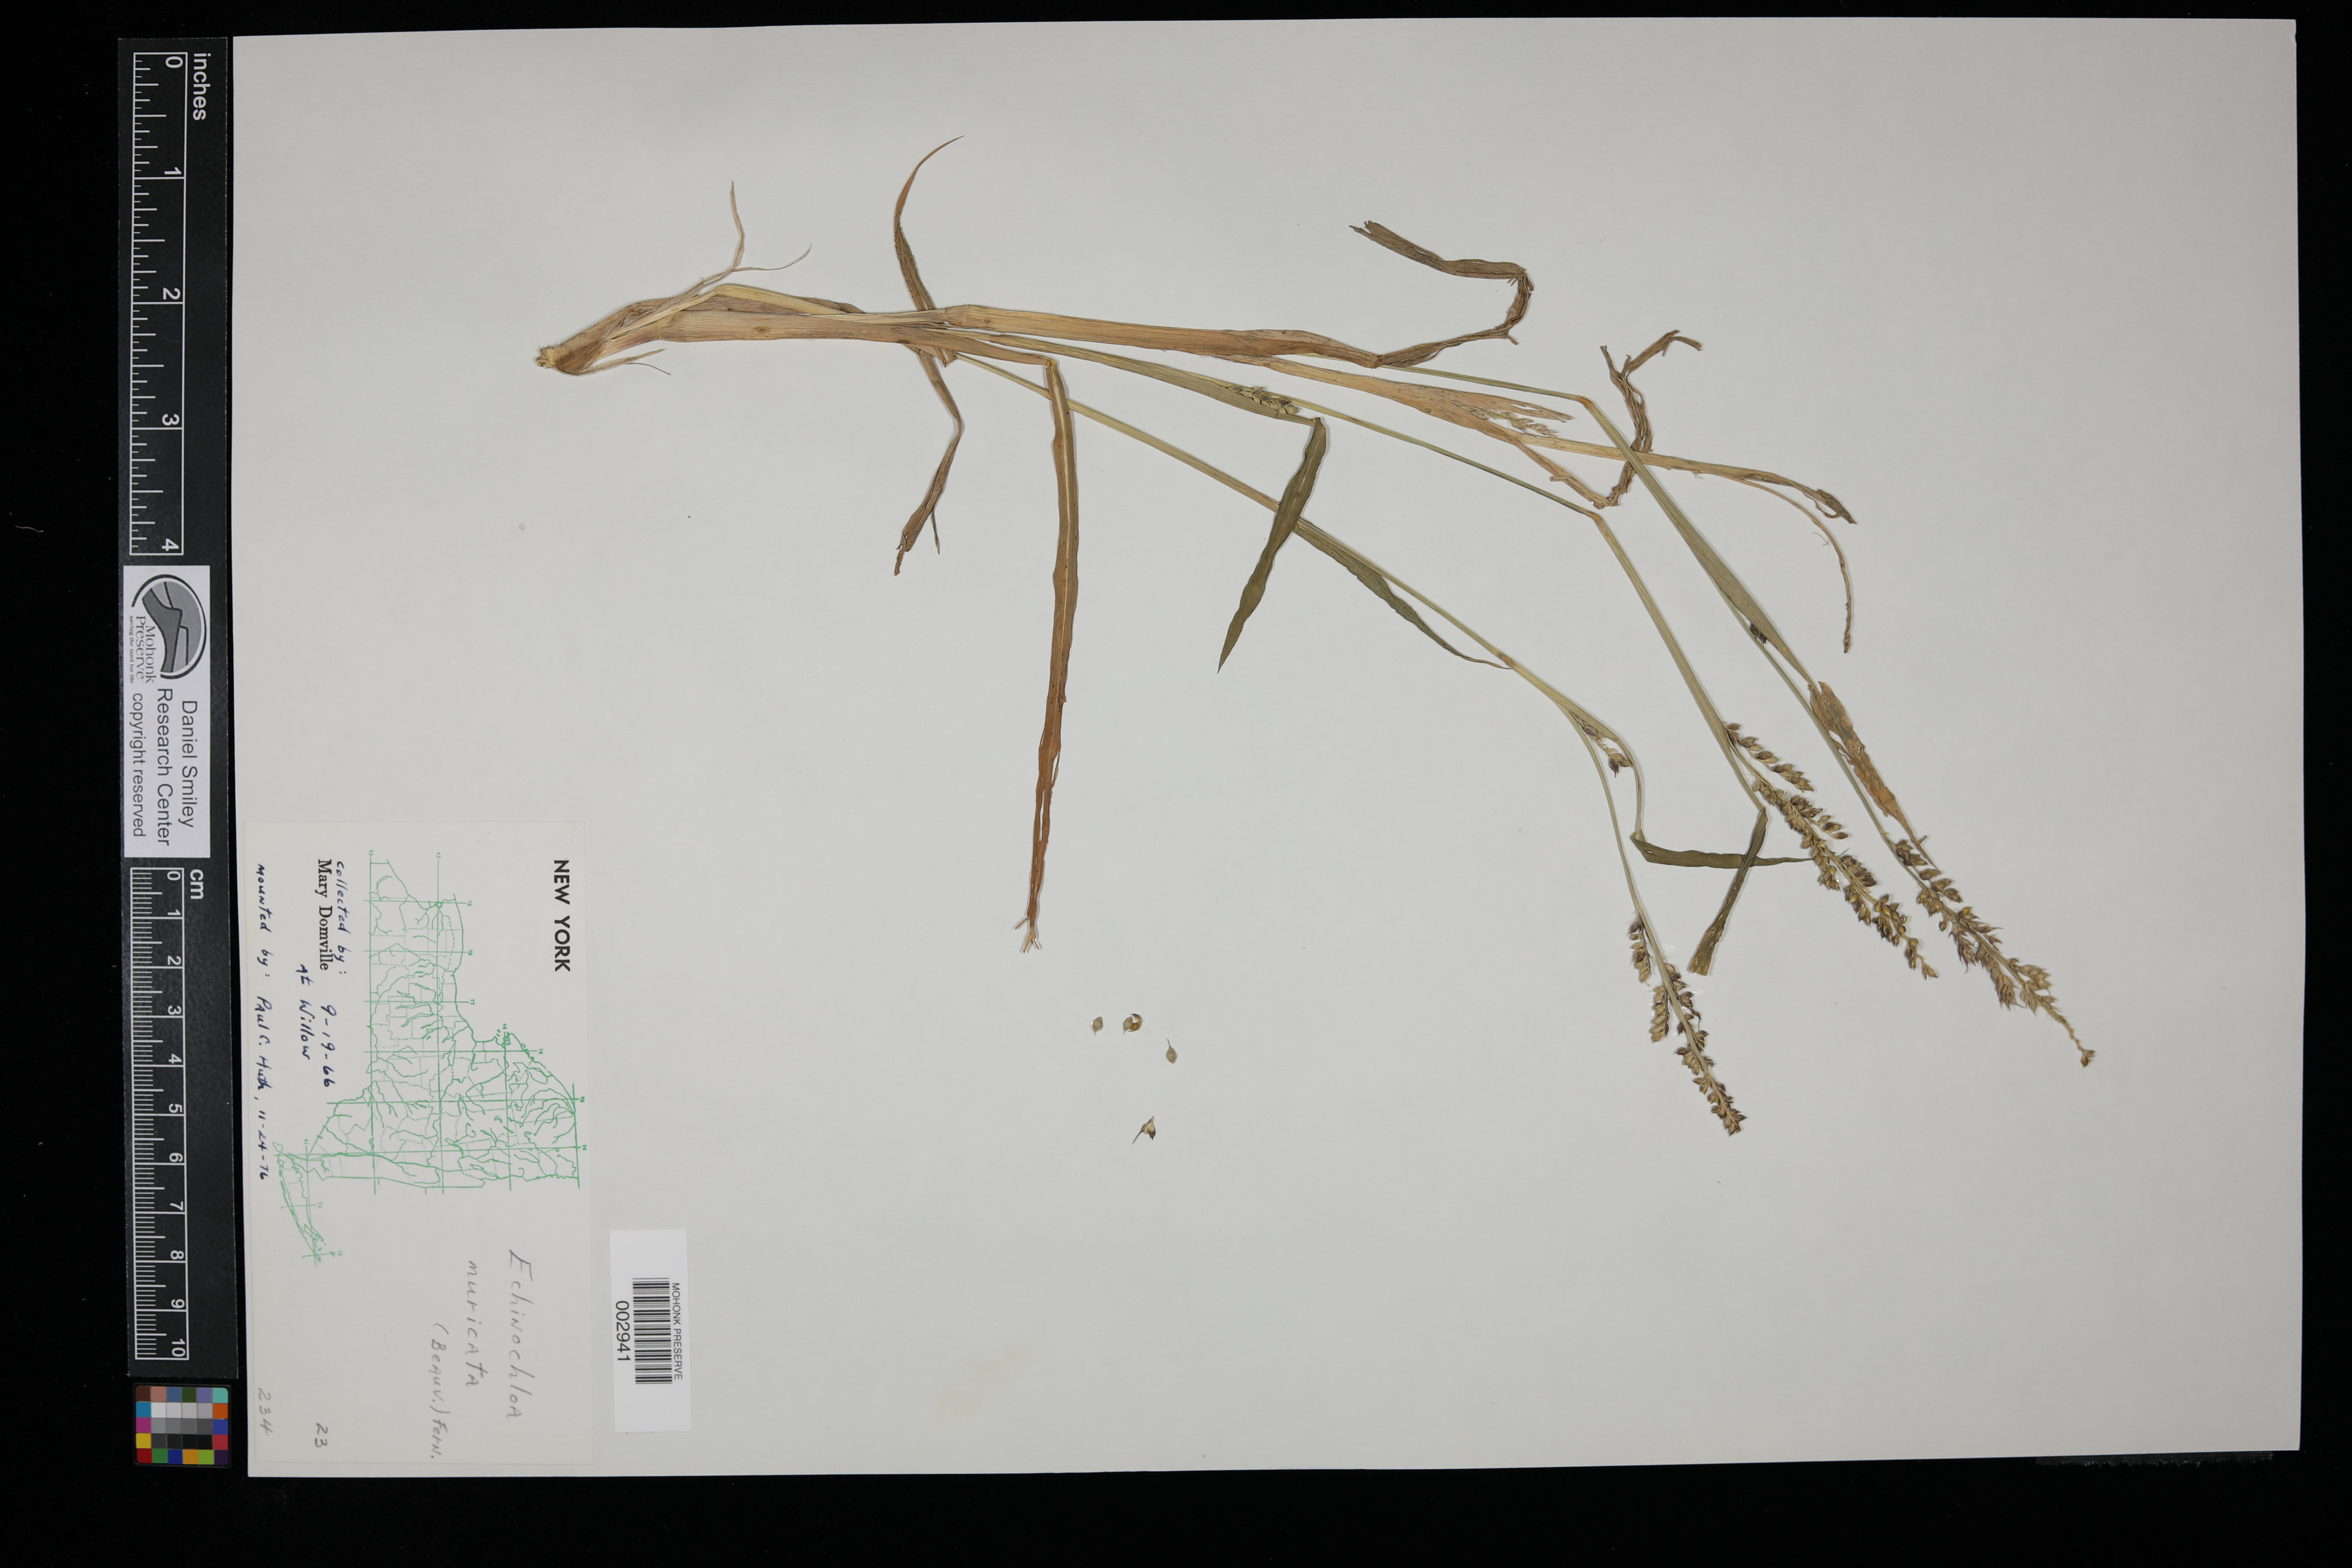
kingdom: Plantae
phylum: Tracheophyta
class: Liliopsida
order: Poales
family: Poaceae
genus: Echinochloa
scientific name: Echinochloa muricata
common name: American barnyard grass
